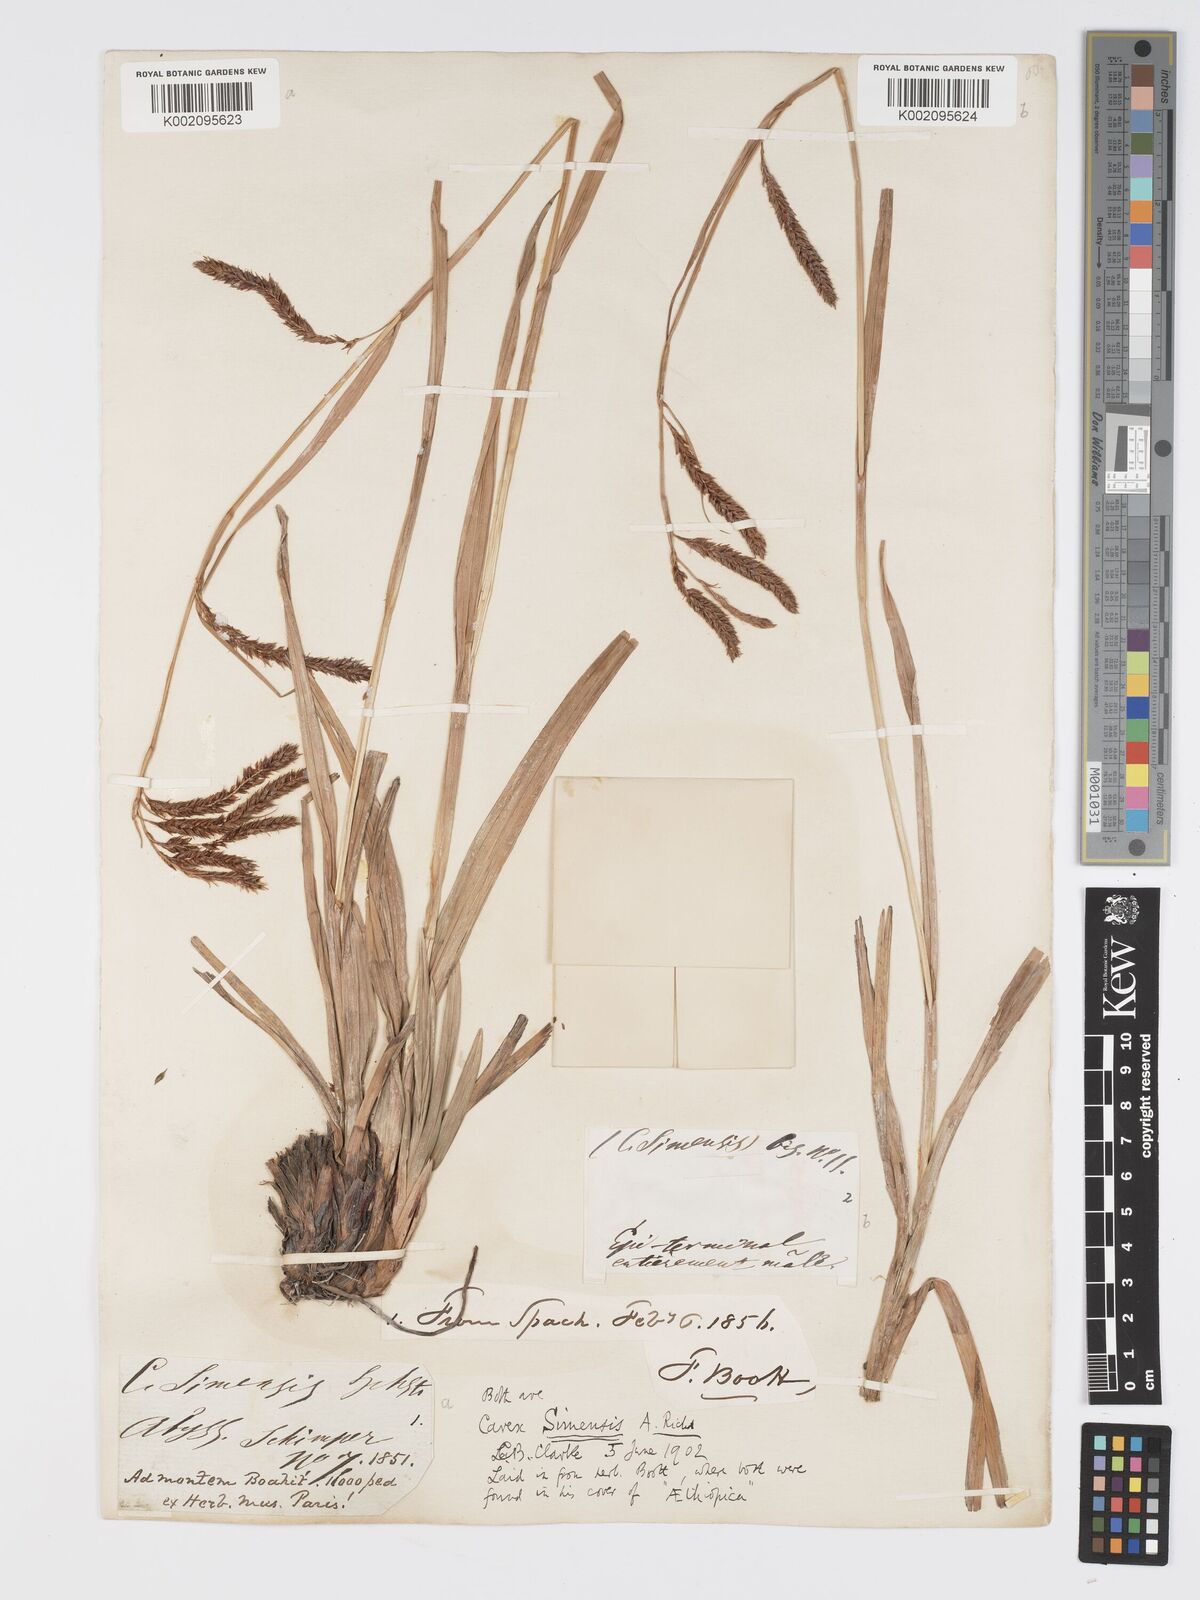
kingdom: Plantae
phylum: Tracheophyta
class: Liliopsida
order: Poales
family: Cyperaceae
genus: Carex
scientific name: Carex simensis
